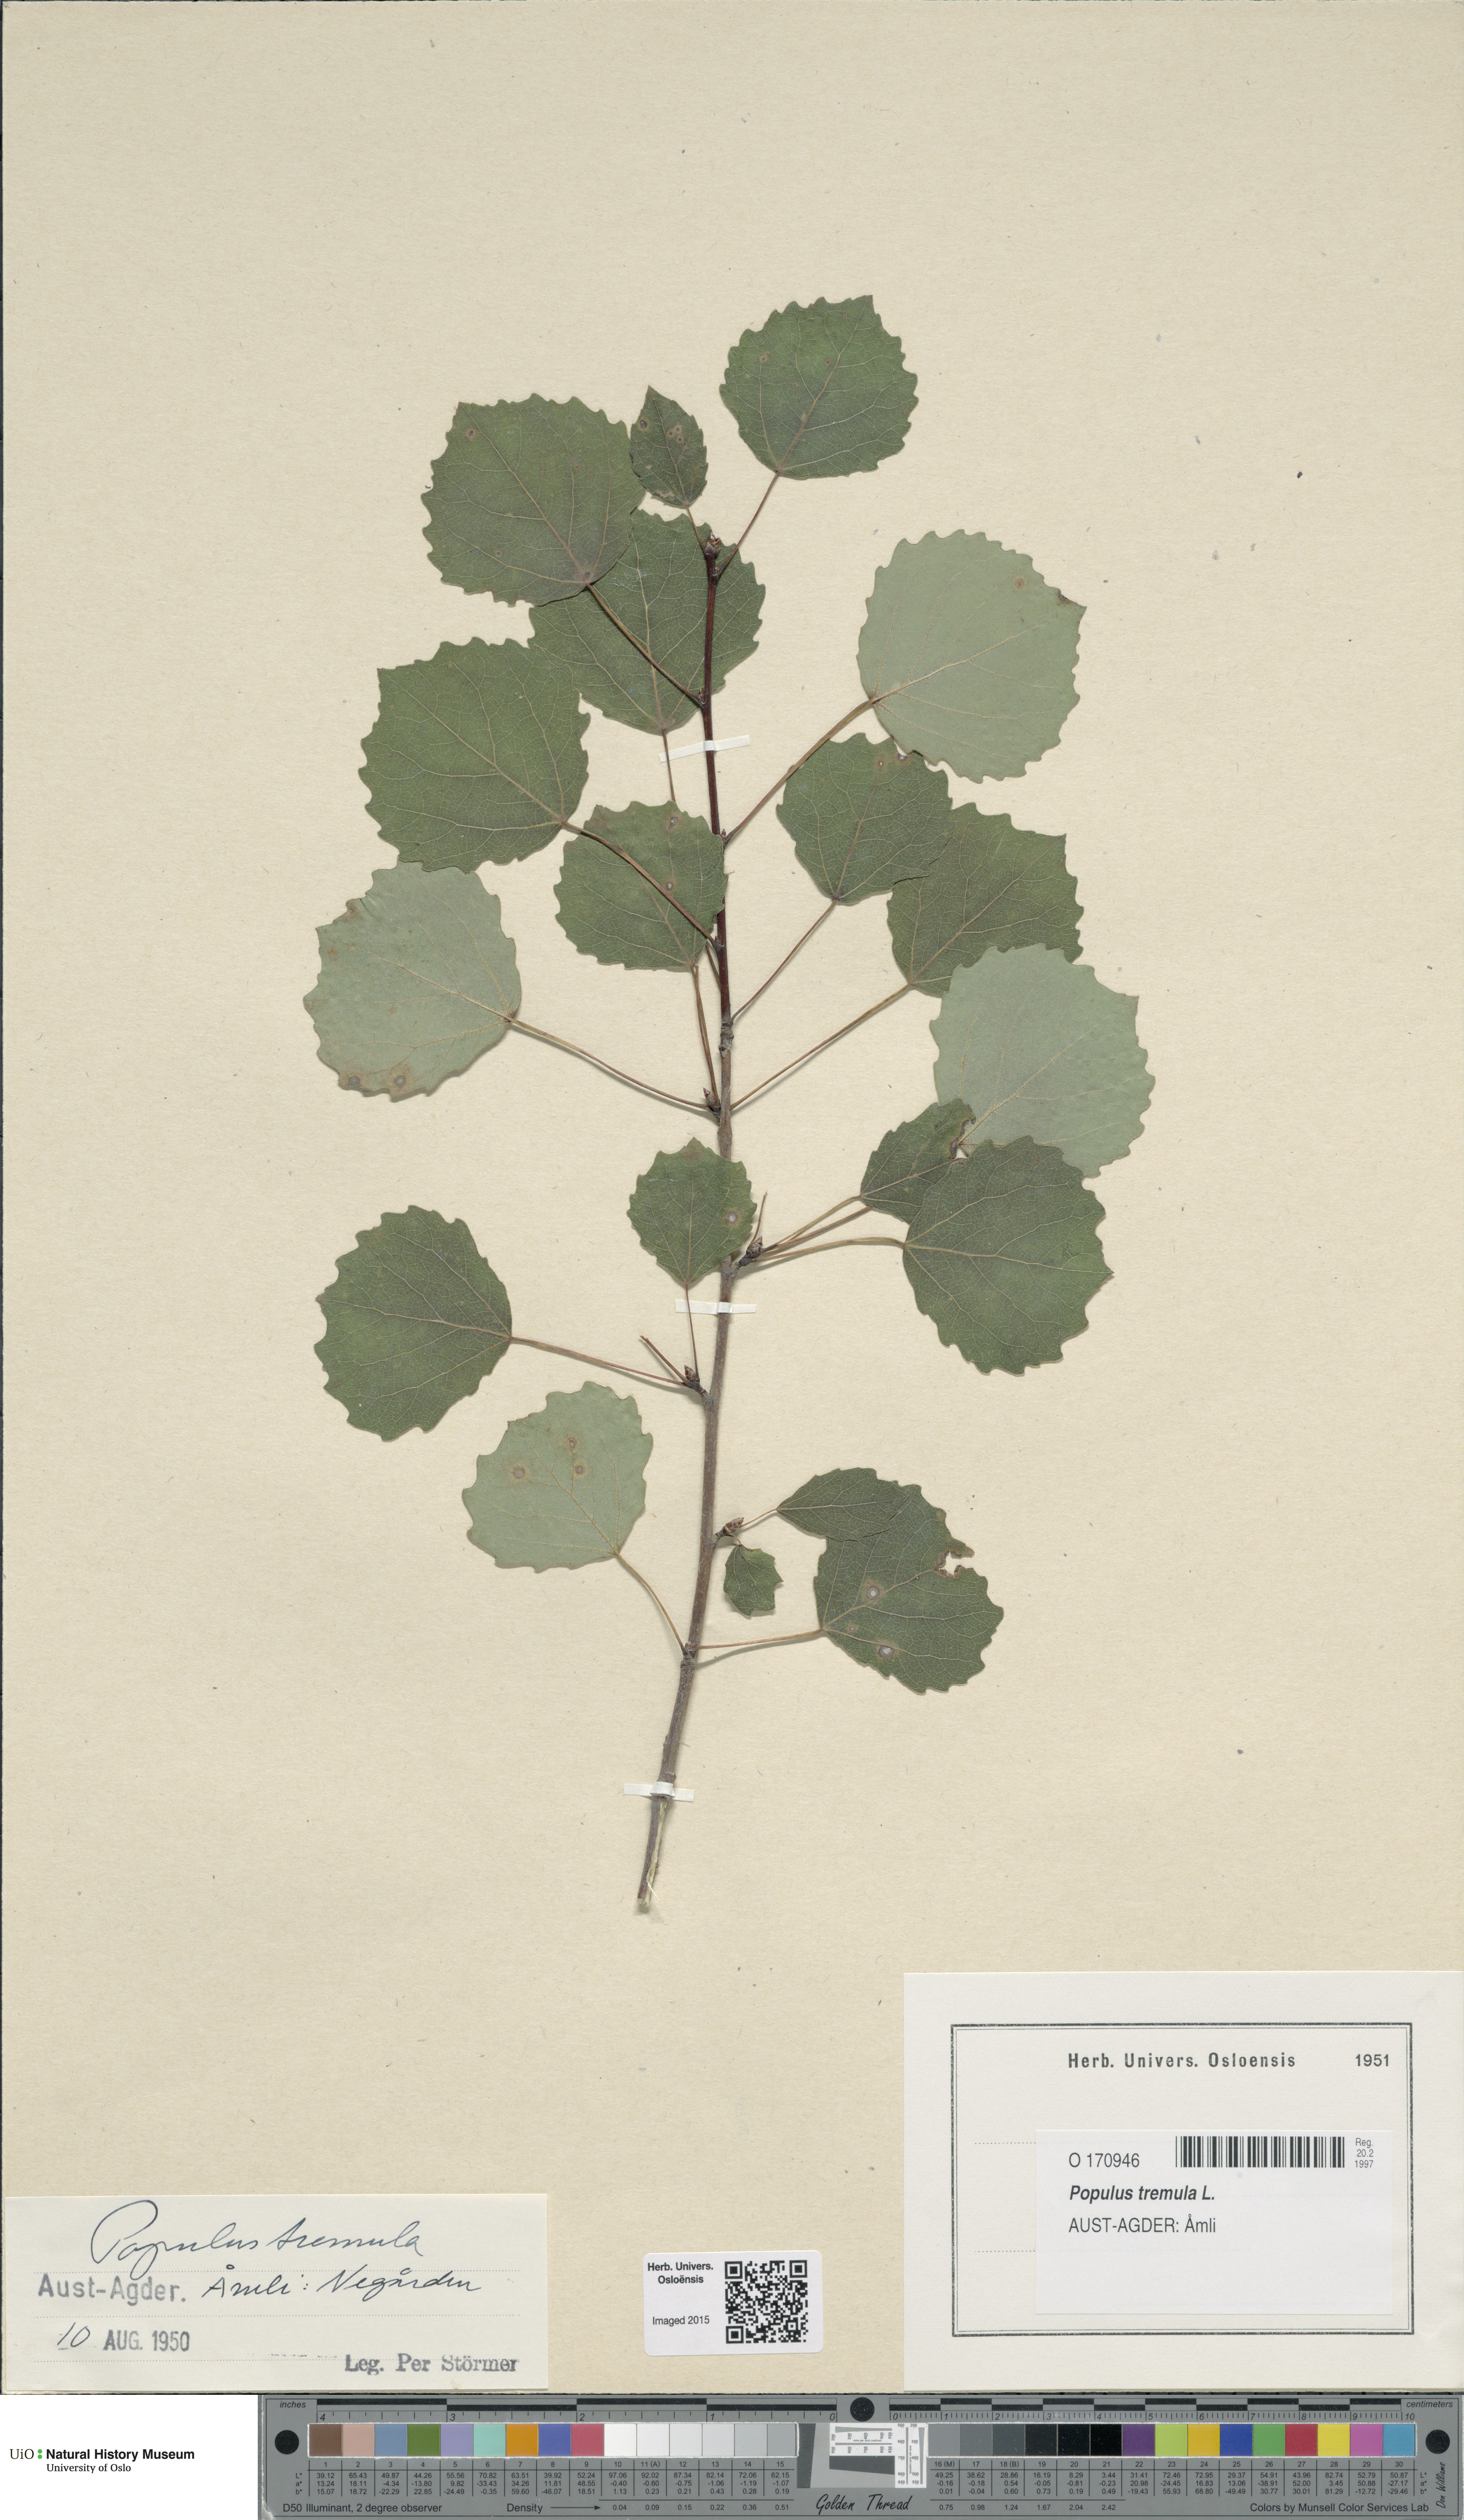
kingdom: Plantae
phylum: Tracheophyta
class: Magnoliopsida
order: Malpighiales
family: Salicaceae
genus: Populus
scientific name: Populus tremula
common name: European aspen
